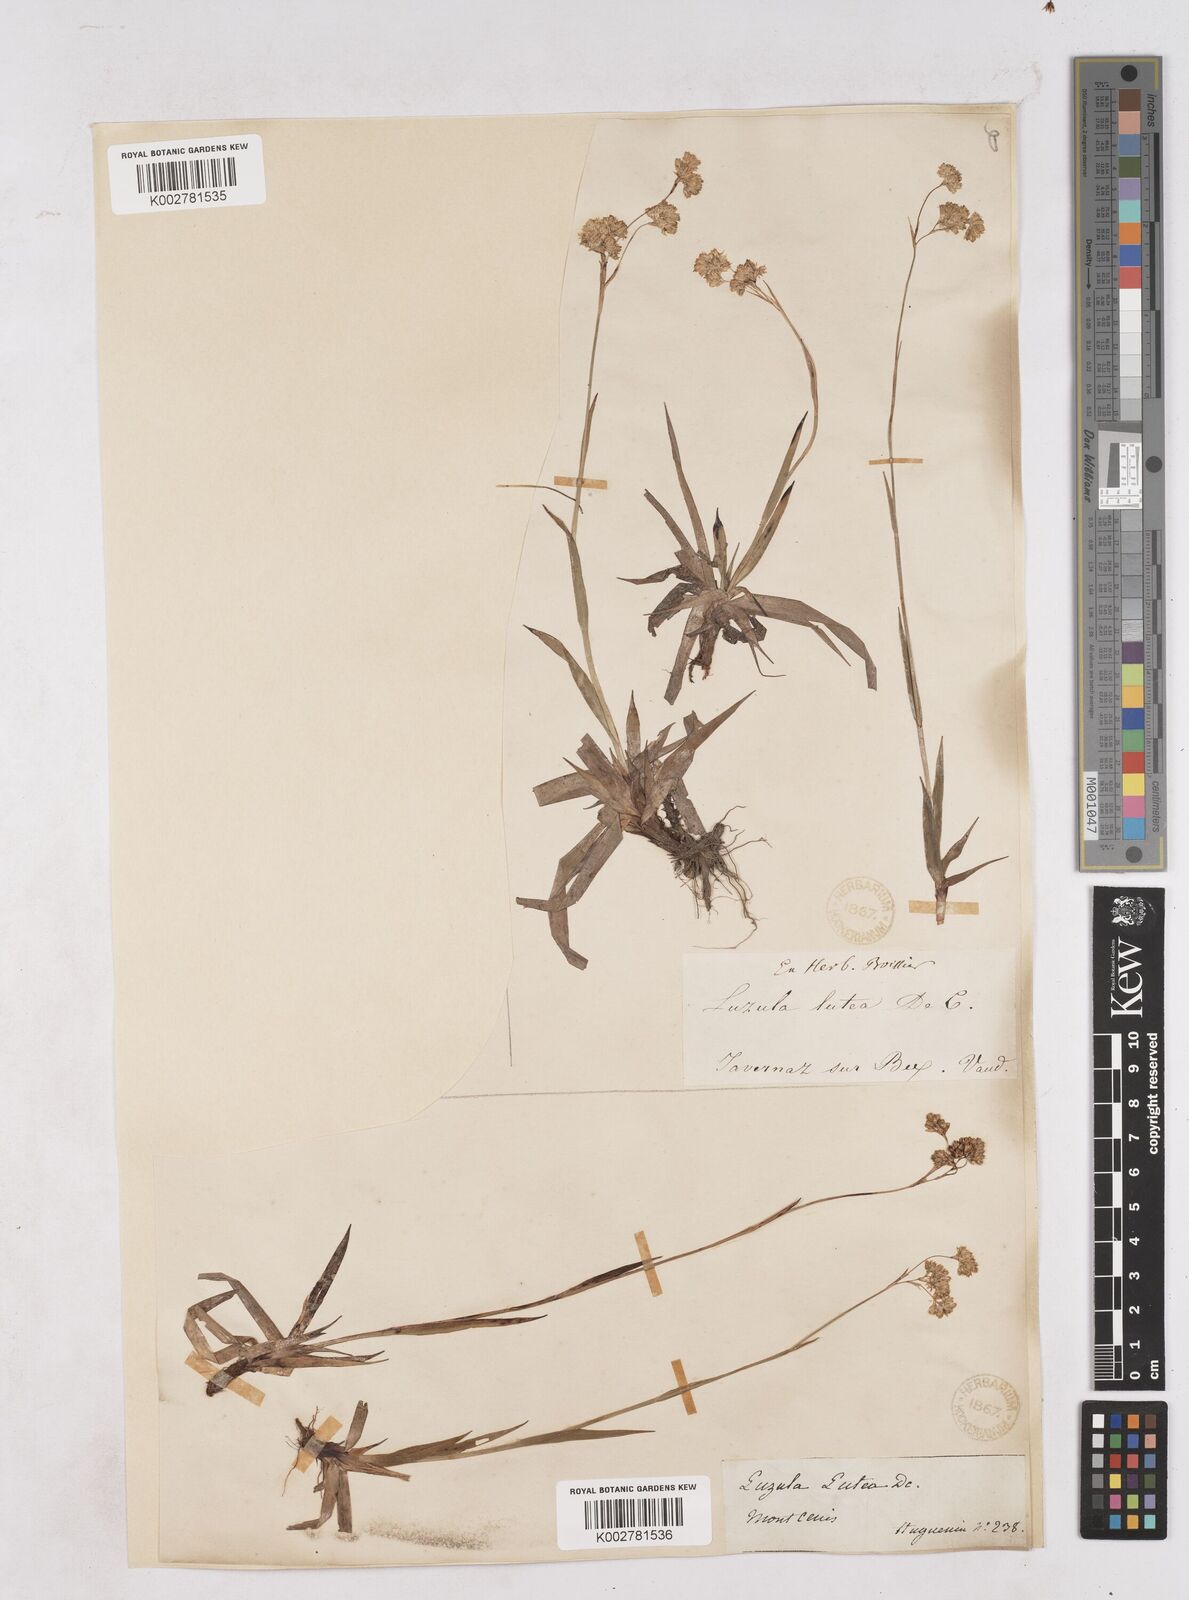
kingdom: Plantae
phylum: Tracheophyta
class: Liliopsida
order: Poales
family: Juncaceae
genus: Luzula
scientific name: Luzula lutea
